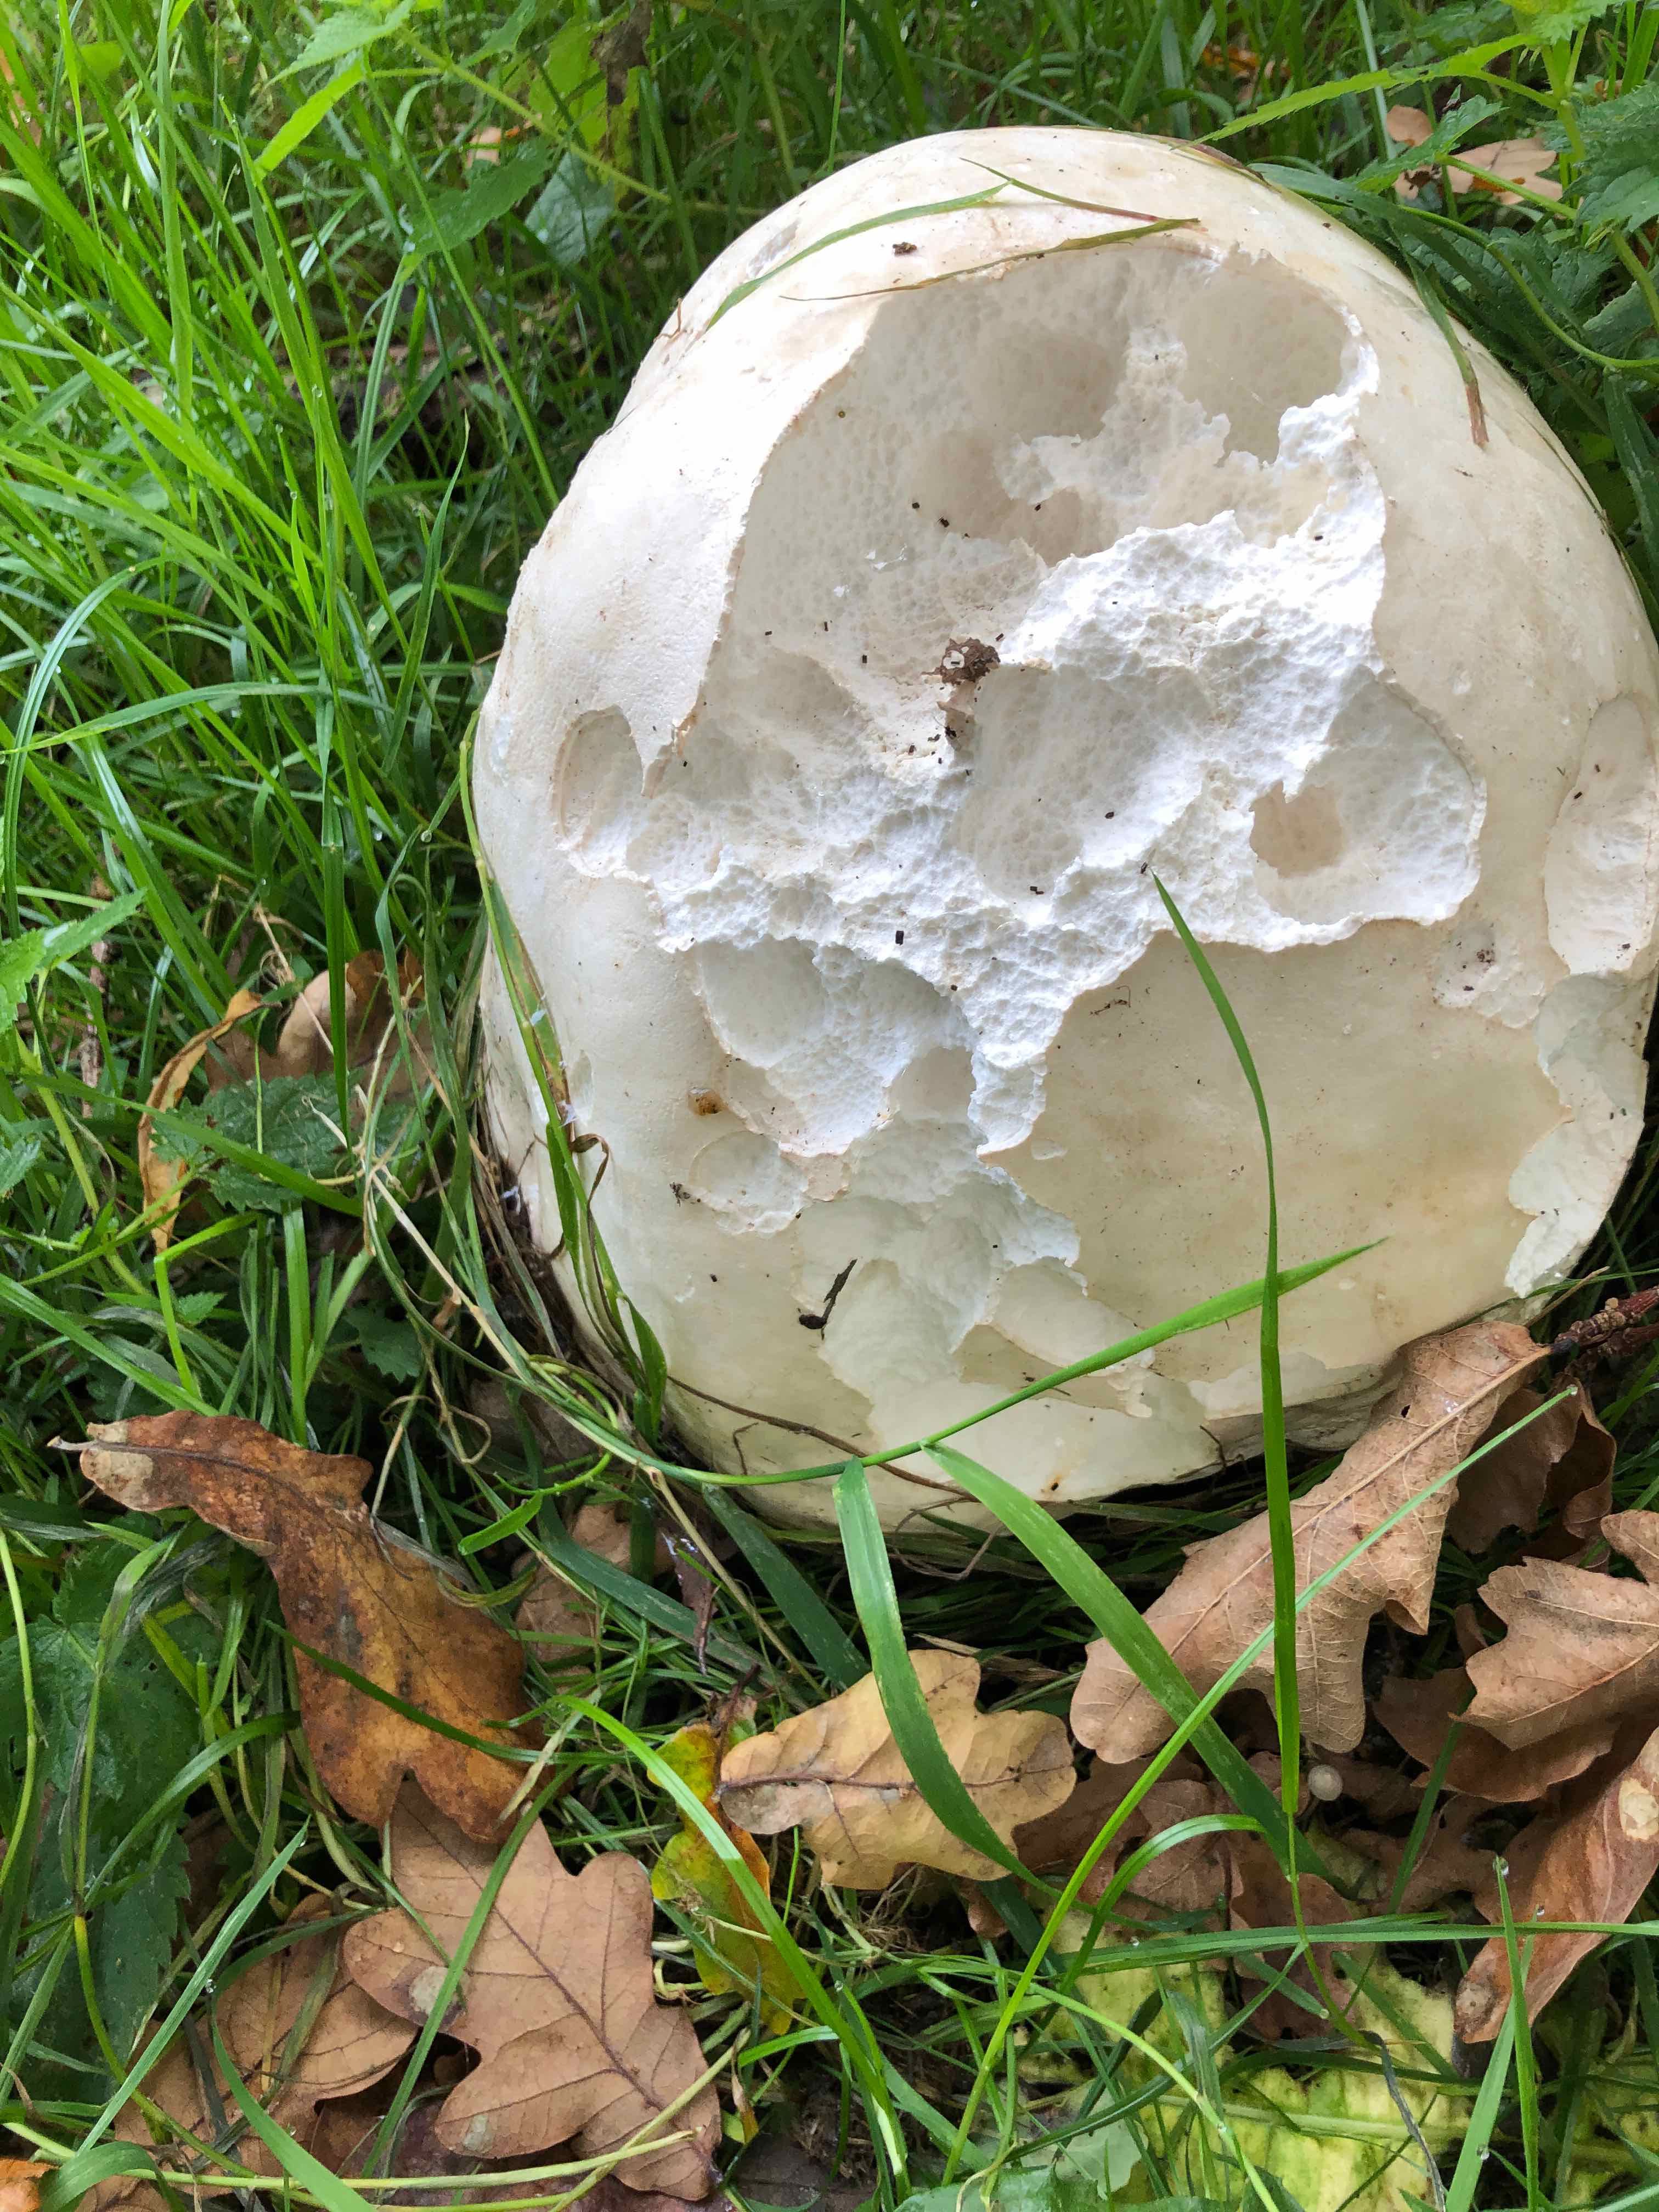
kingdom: Fungi
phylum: Basidiomycota
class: Agaricomycetes
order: Agaricales
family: Lycoperdaceae
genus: Calvatia
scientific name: Calvatia gigantea
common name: kæmpestøvbold
